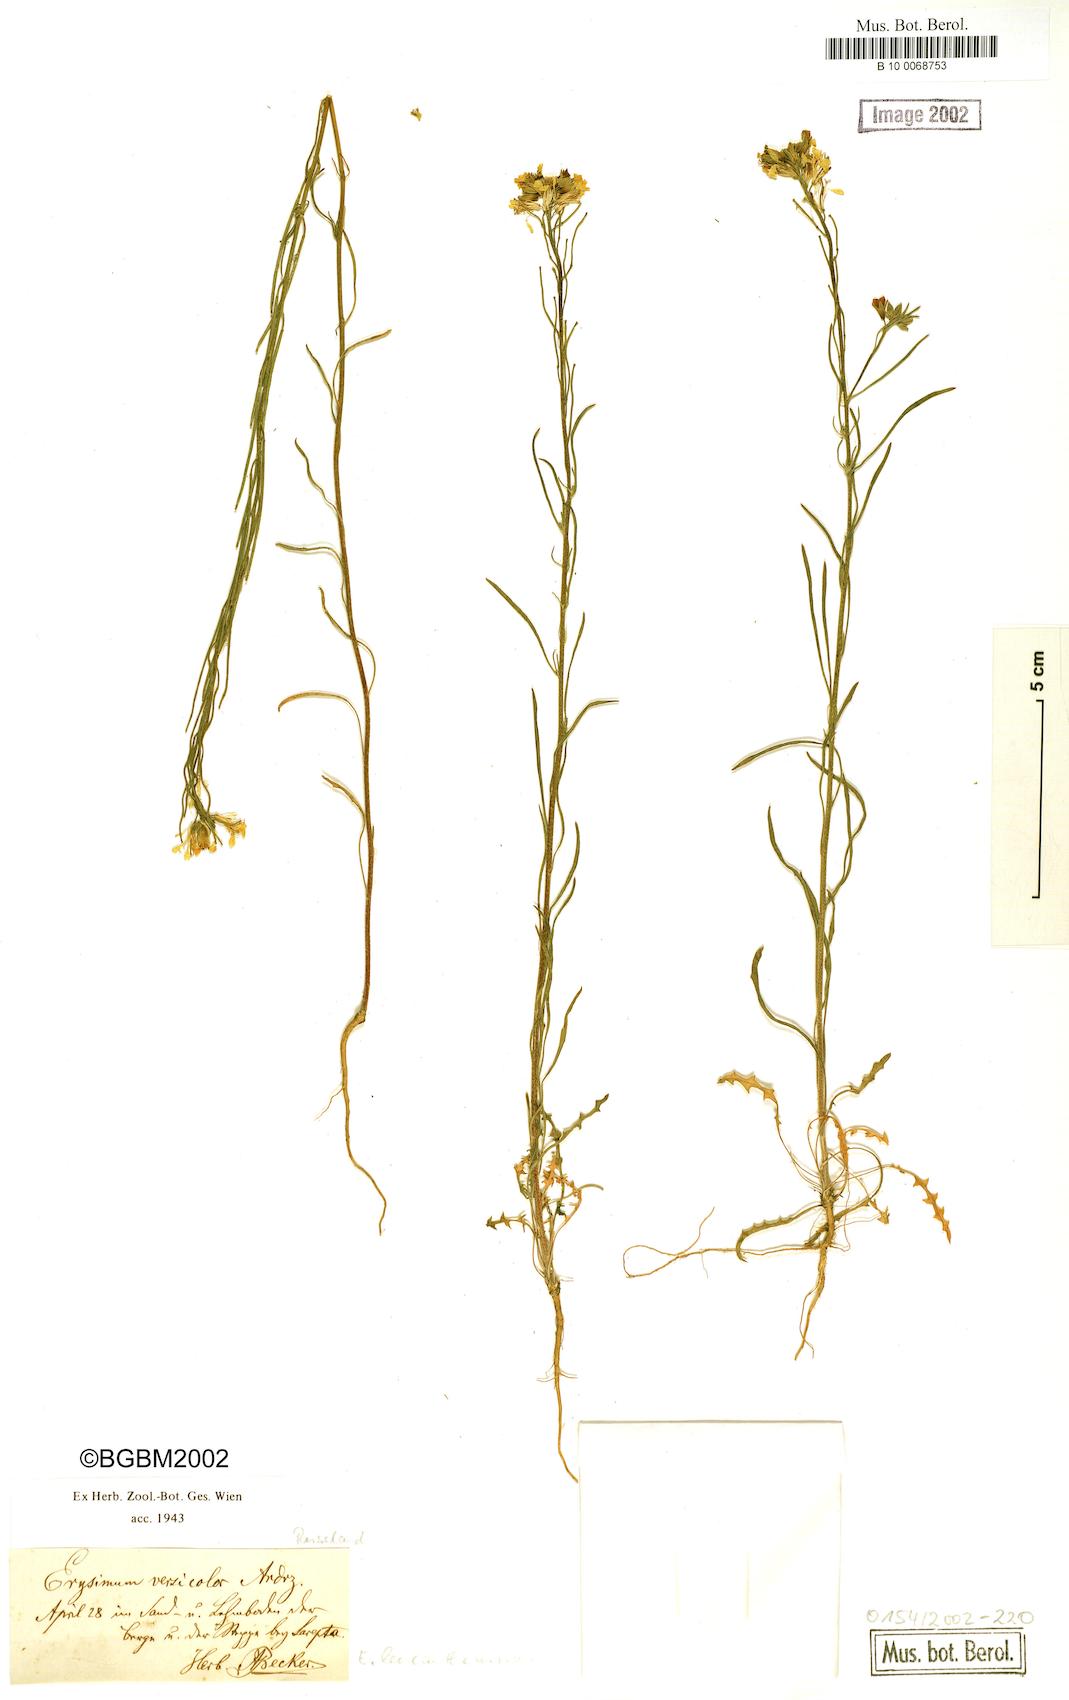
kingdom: Plantae
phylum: Tracheophyta
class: Magnoliopsida
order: Brassicales
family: Brassicaceae
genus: Erysimum
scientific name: Erysimum leucanthemum
